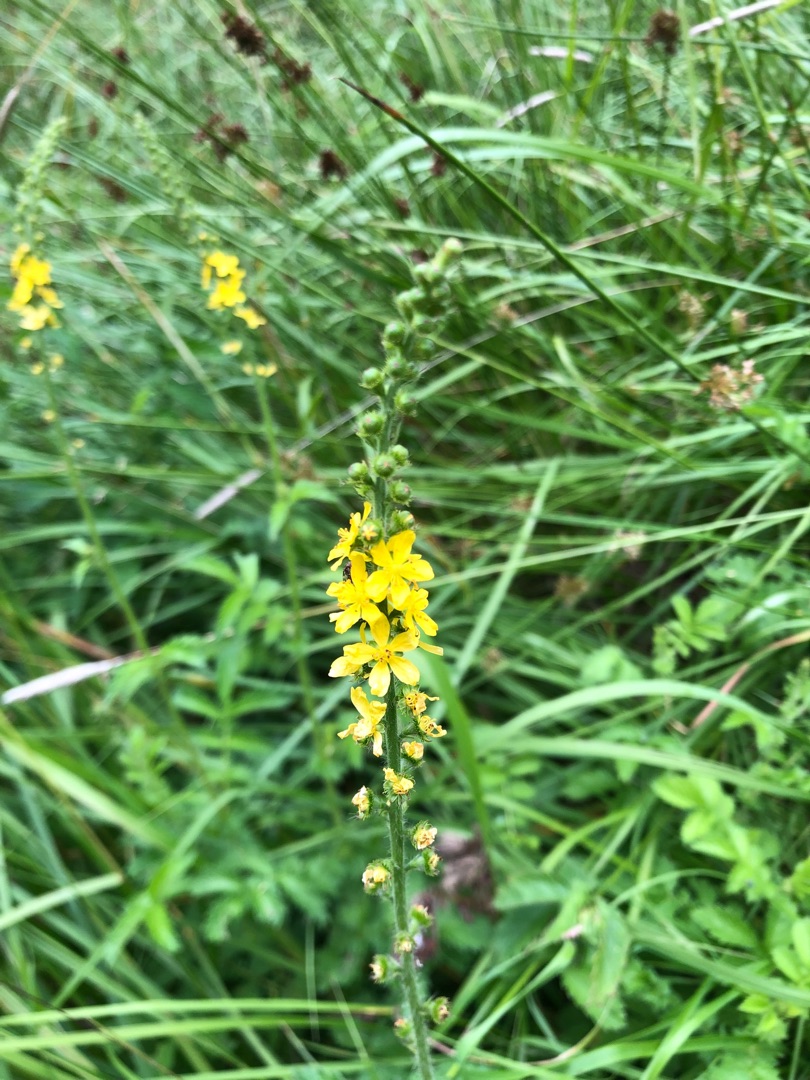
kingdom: Plantae
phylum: Tracheophyta
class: Magnoliopsida
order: Rosales
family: Rosaceae
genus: Agrimonia
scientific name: Agrimonia
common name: Agermåneslægten
